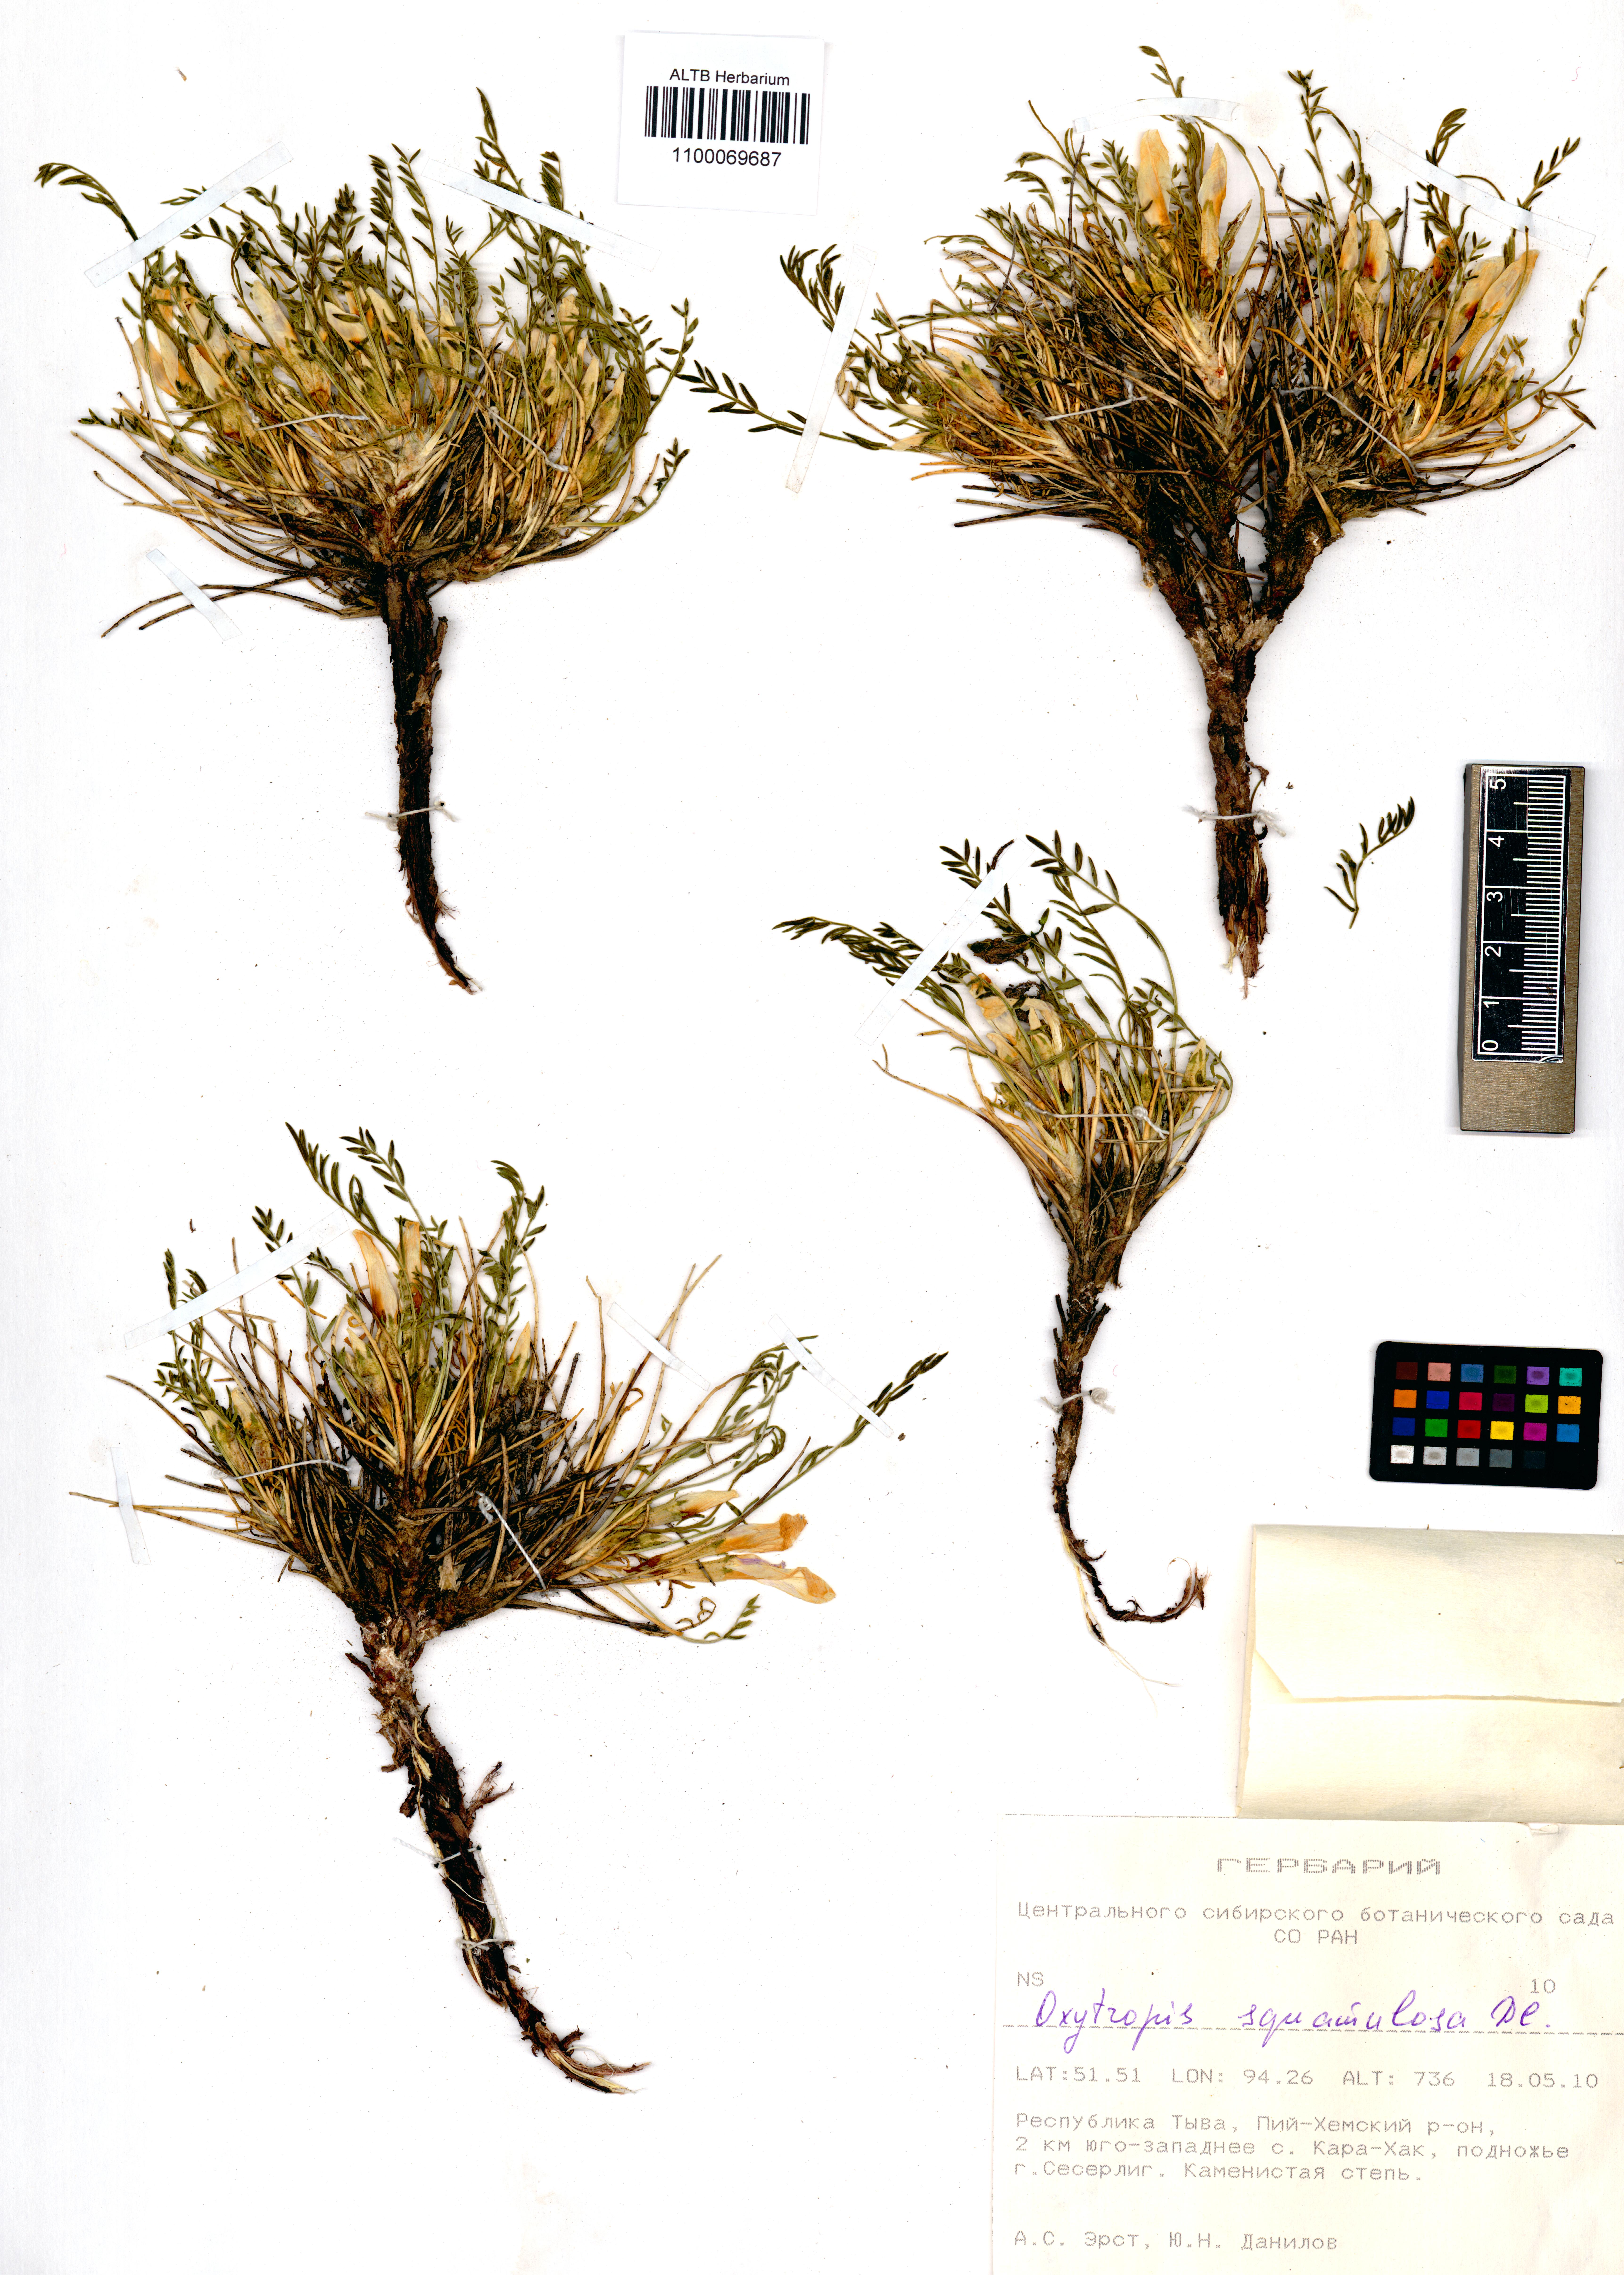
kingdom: Plantae
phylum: Tracheophyta
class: Magnoliopsida
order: Fabales
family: Fabaceae
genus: Oxytropis
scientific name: Oxytropis squammulosa
